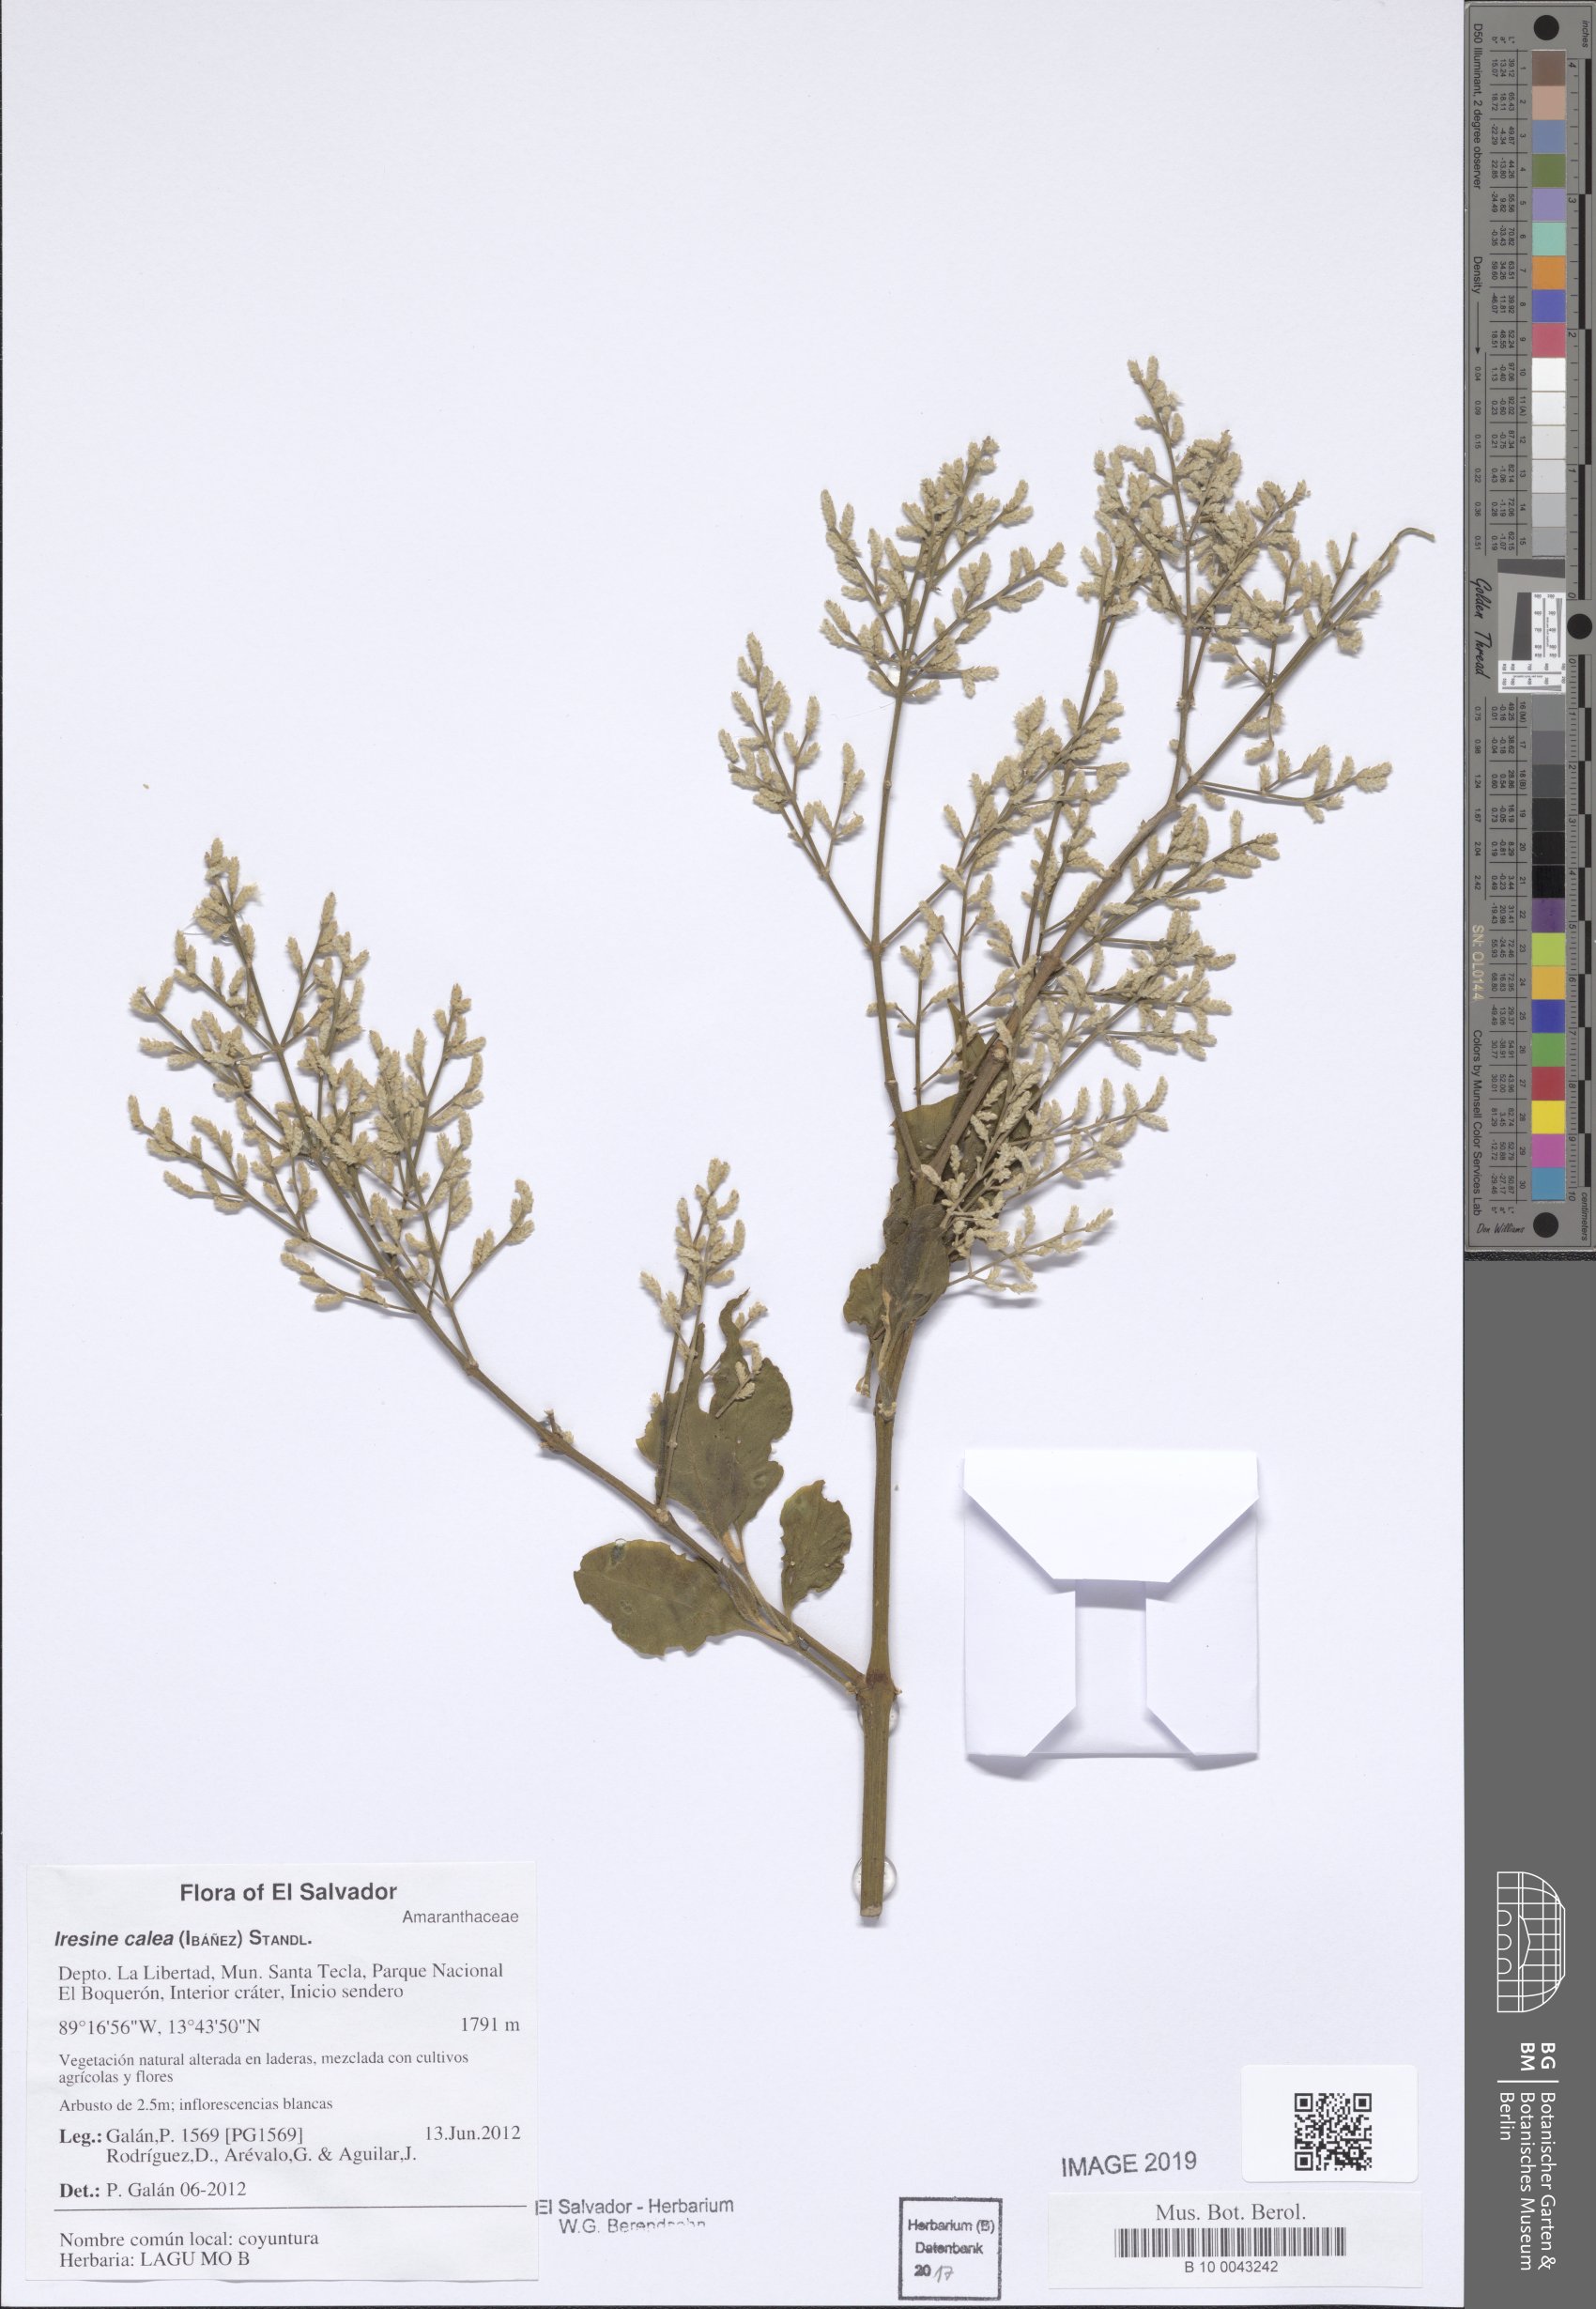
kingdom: Plantae
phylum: Tracheophyta
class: Magnoliopsida
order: Caryophyllales
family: Amaranthaceae
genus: Iresine
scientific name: Iresine latifolia
